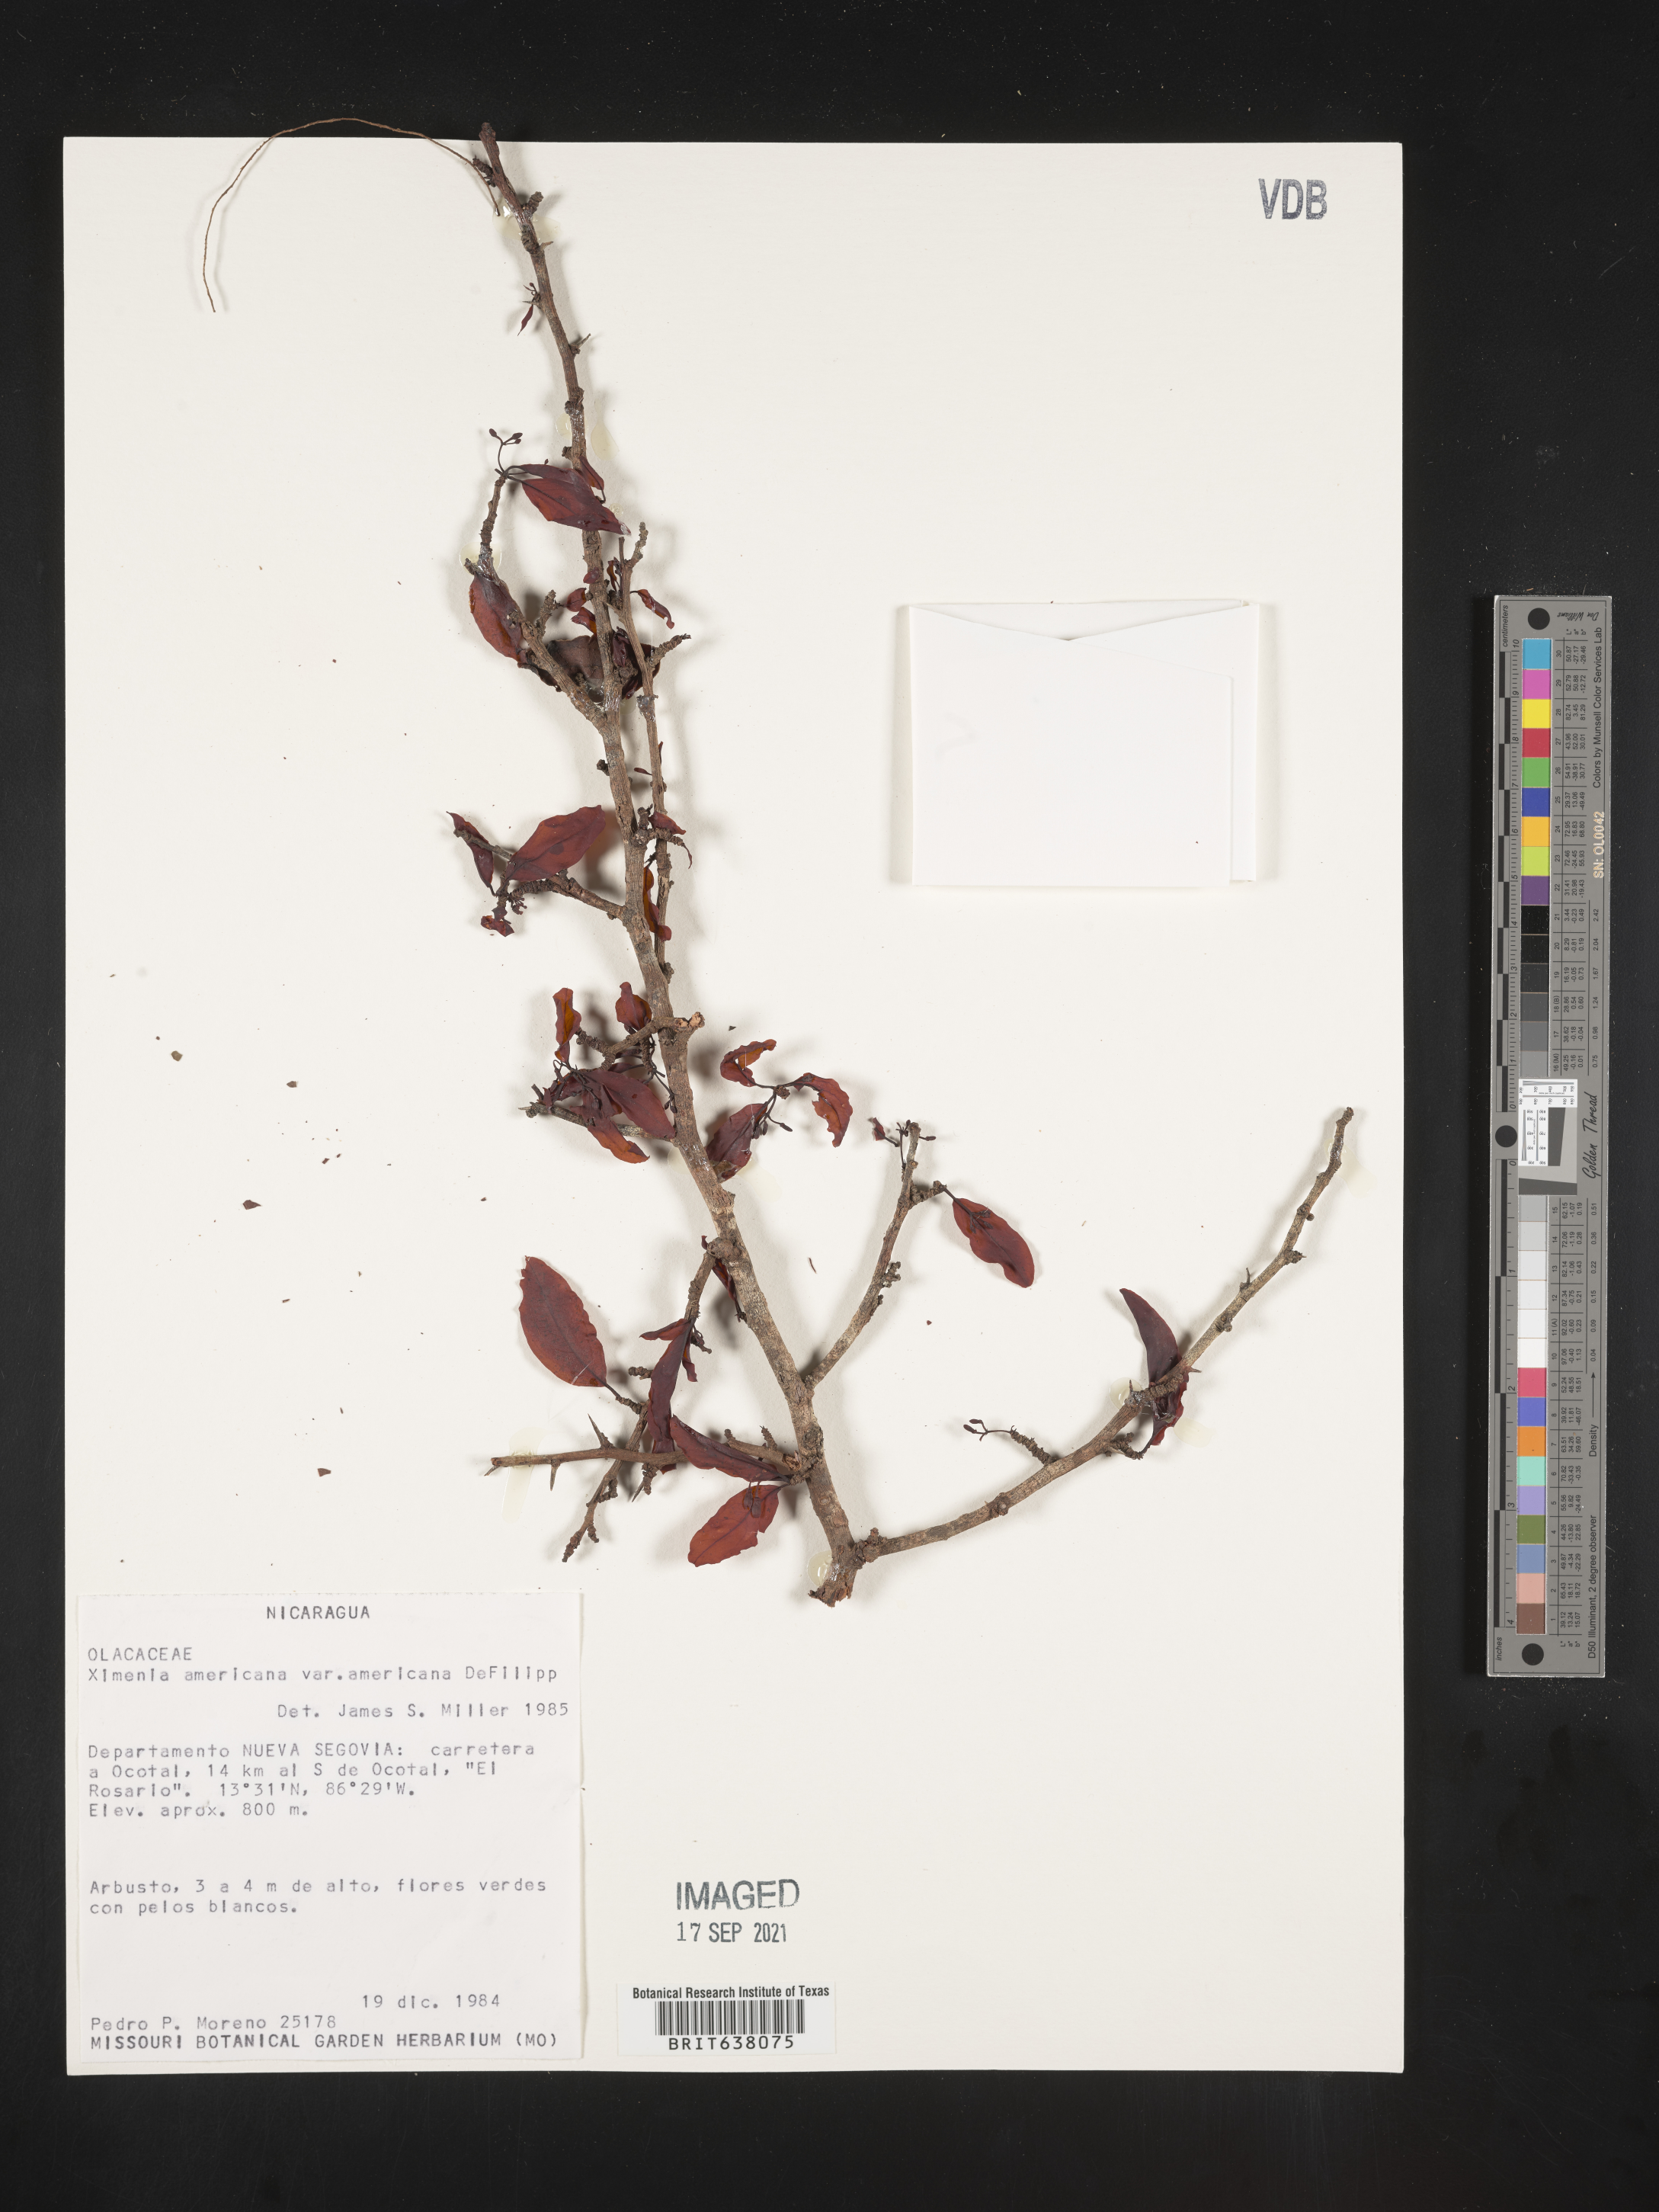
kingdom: Plantae
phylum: Tracheophyta
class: Magnoliopsida
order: Santalales
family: Ximeniaceae
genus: Ximenia
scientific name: Ximenia
